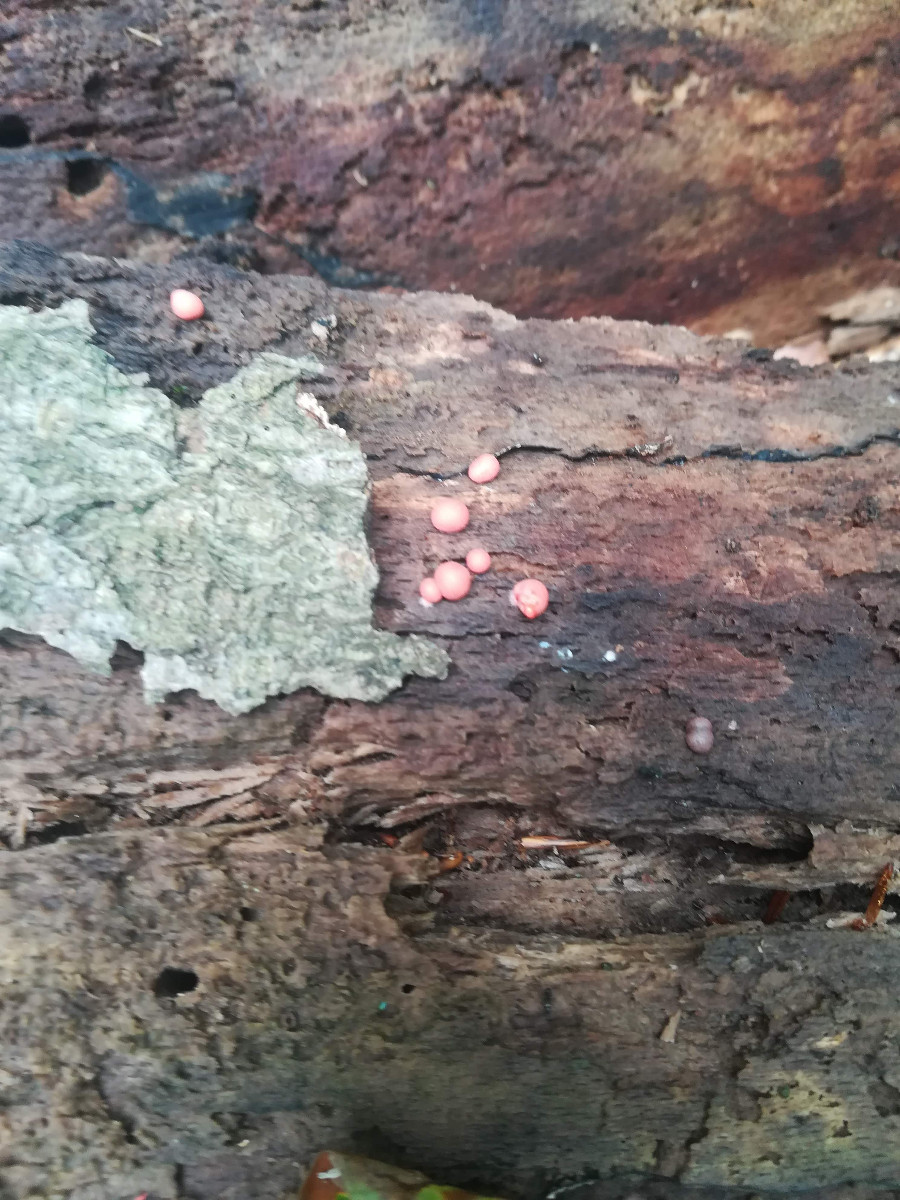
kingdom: Protozoa
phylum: Mycetozoa
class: Myxomycetes
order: Cribrariales
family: Tubiferaceae
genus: Lycogala
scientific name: Lycogala epidendrum
